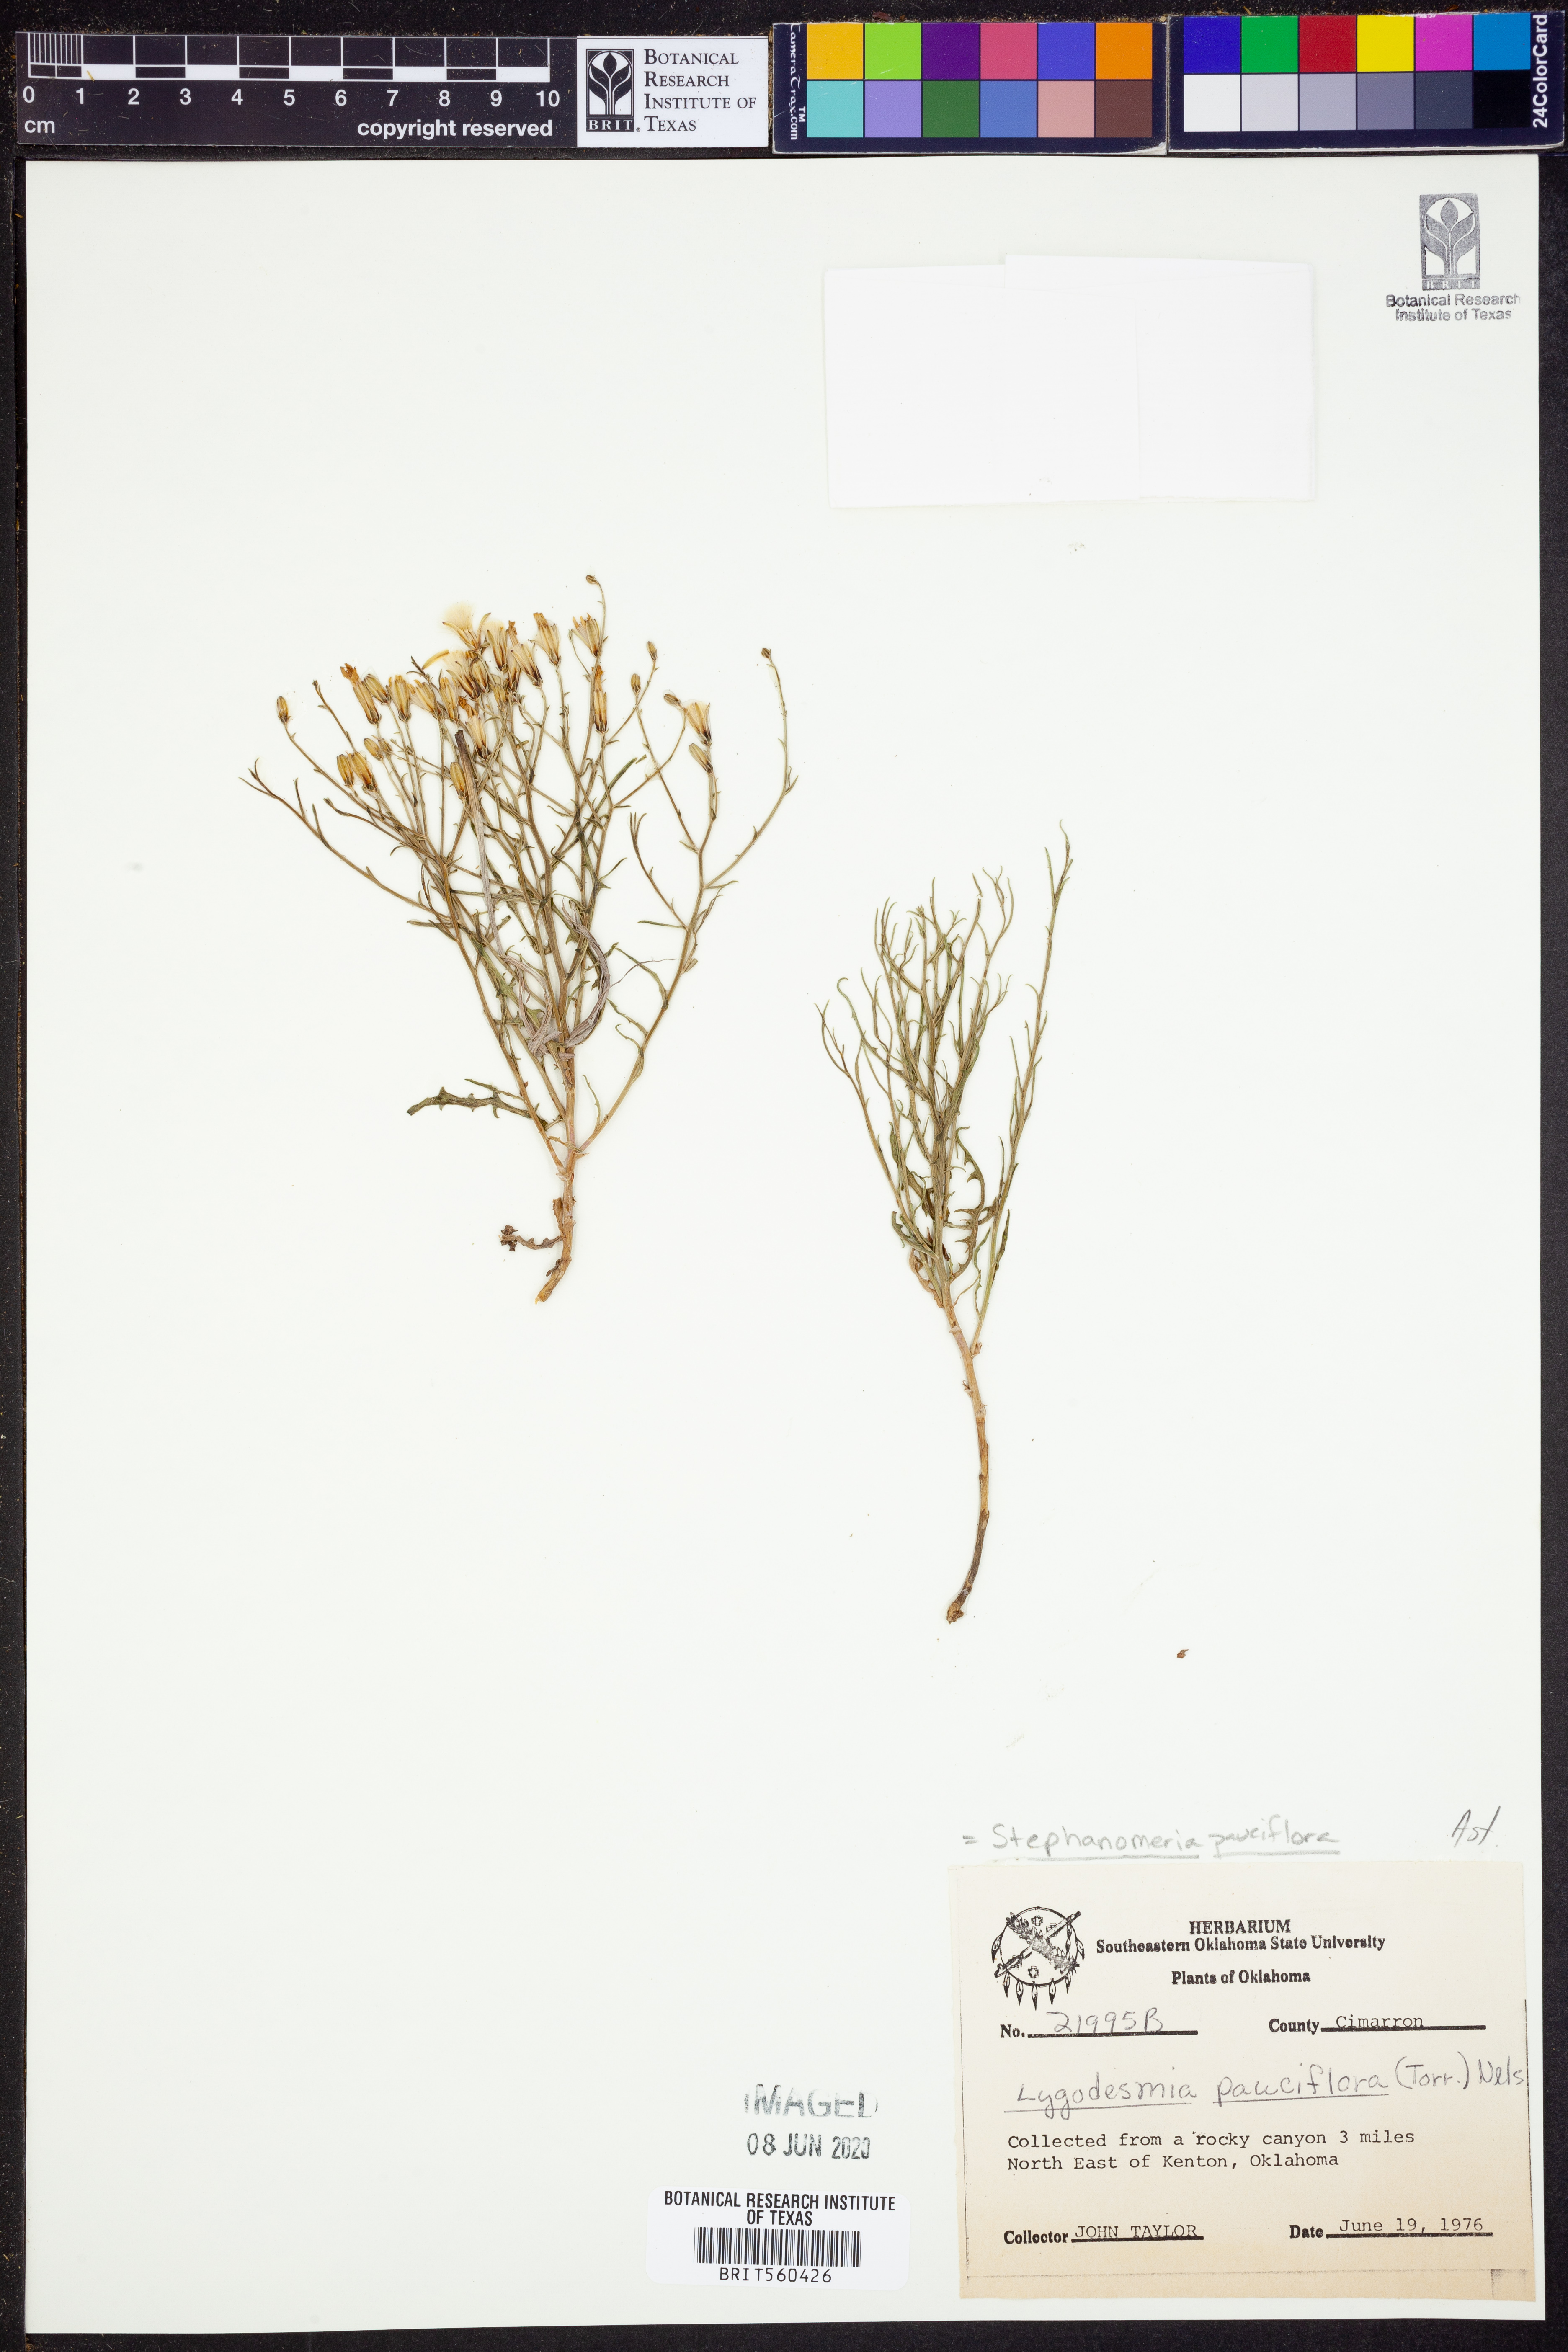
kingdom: Plantae
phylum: Tracheophyta
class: Magnoliopsida
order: Asterales
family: Asteraceae
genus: Stephanomeria
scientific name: Stephanomeria pauciflora
